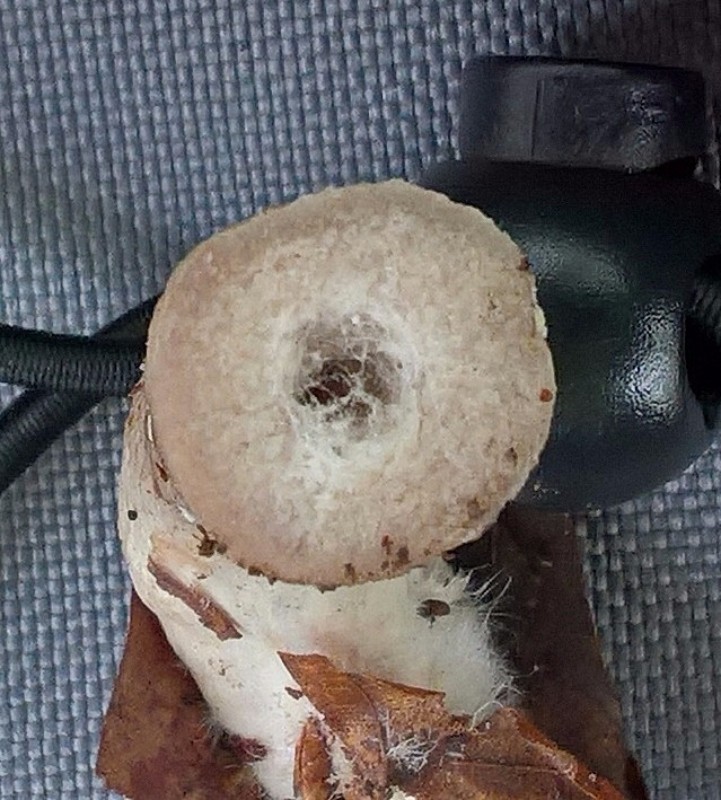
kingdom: Fungi
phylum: Basidiomycota
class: Agaricomycetes
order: Russulales
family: Russulaceae
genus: Lactarius
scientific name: Lactarius blennius
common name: dråbeplettet mælkehat
